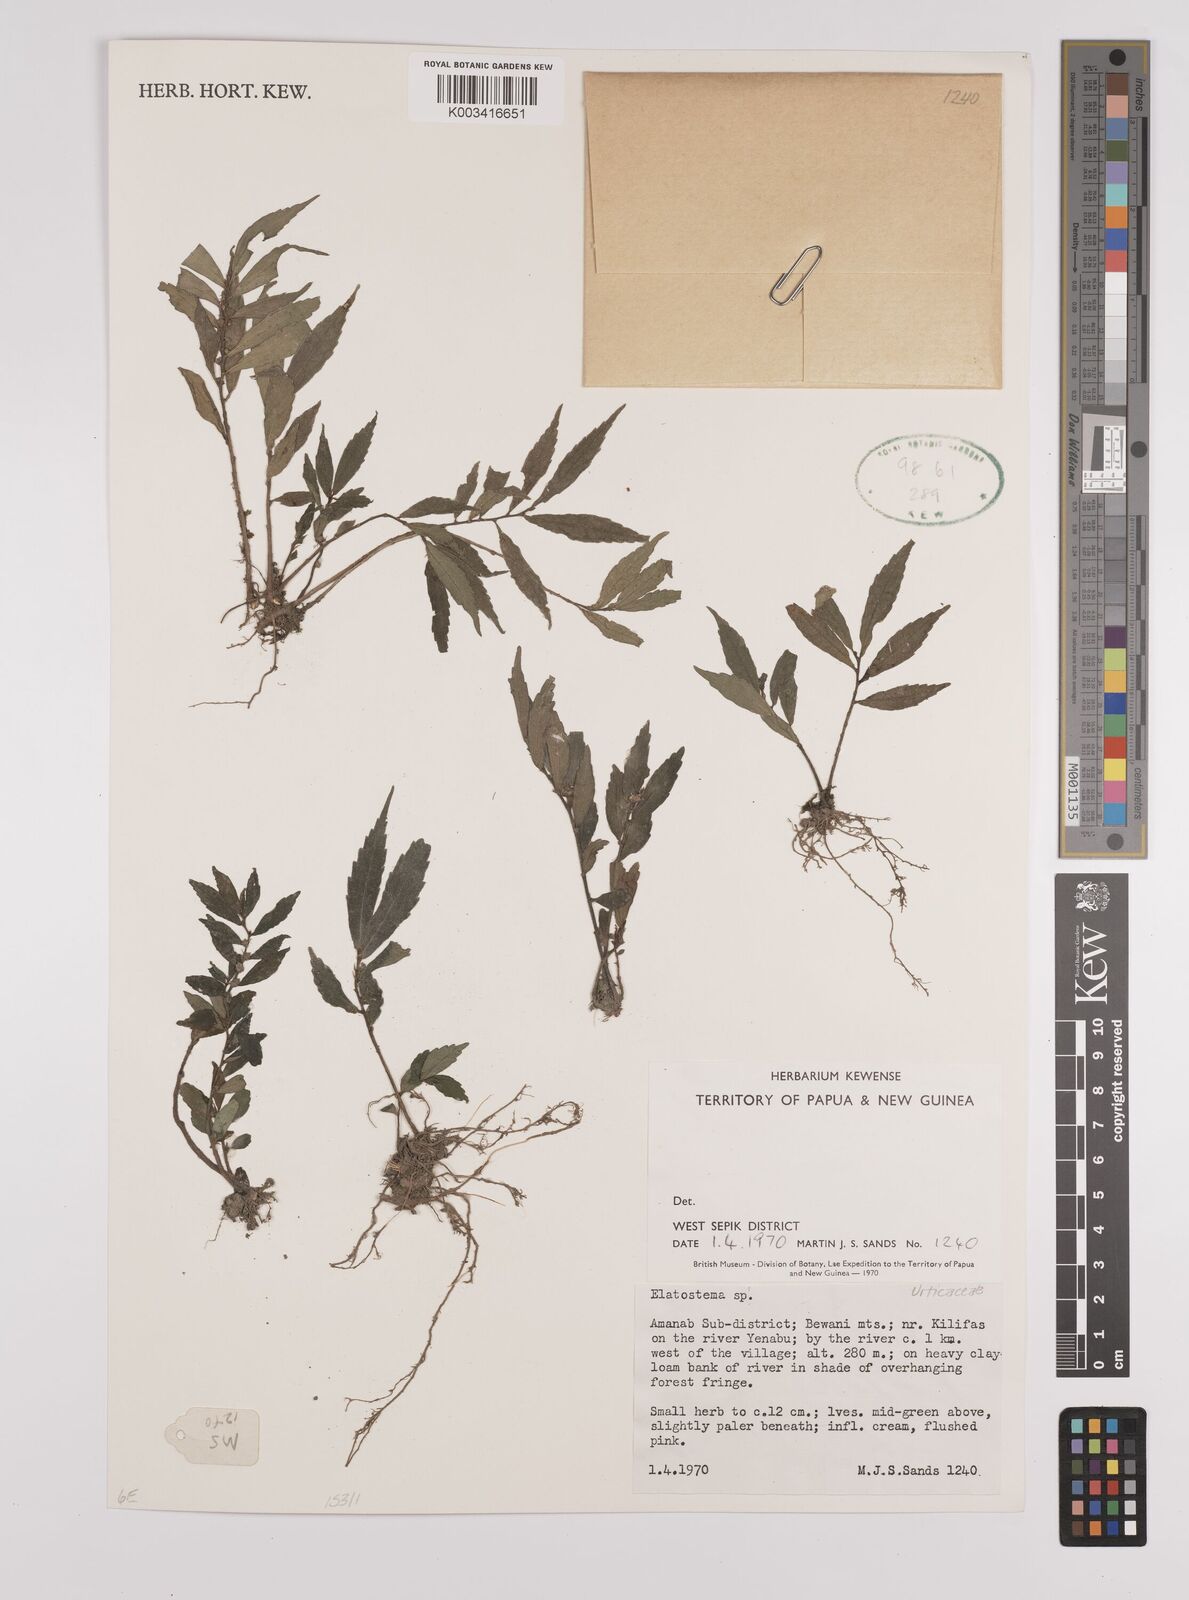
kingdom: Plantae
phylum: Tracheophyta
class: Magnoliopsida
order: Rosales
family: Urticaceae
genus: Elatostema
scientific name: Elatostema
